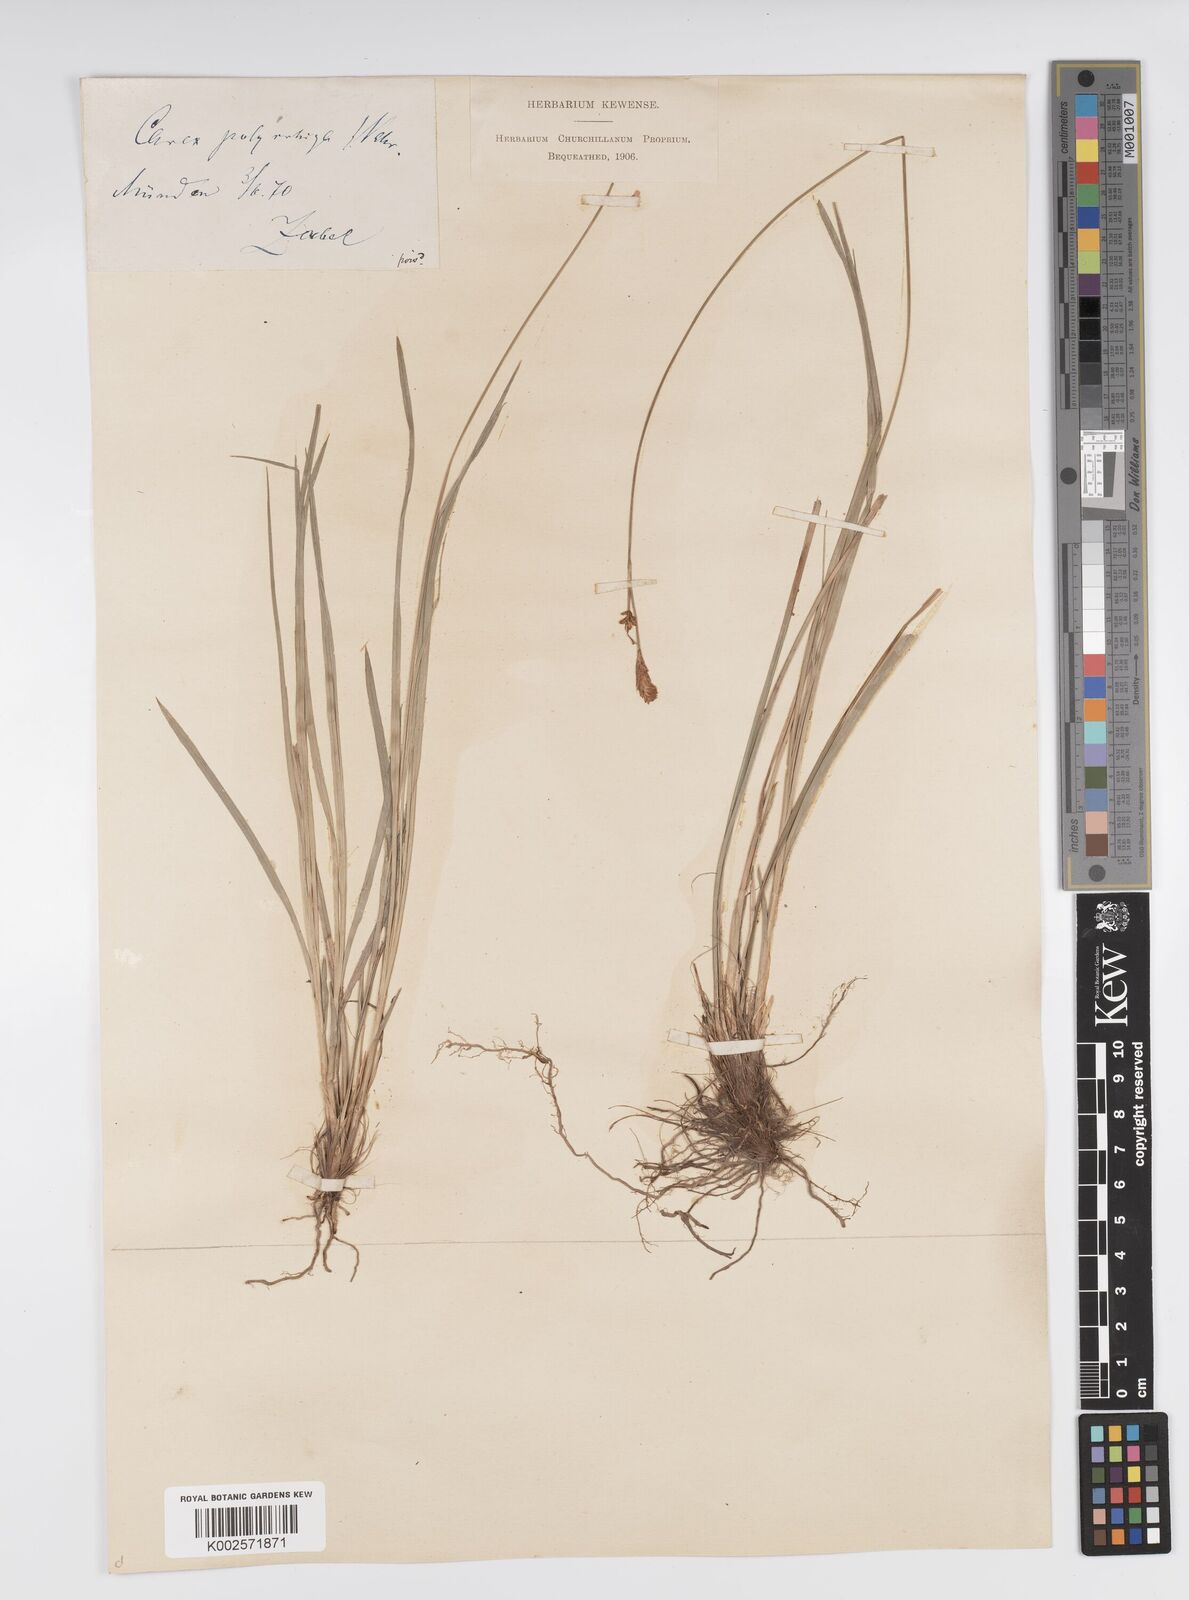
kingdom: Plantae
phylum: Tracheophyta
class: Liliopsida
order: Poales
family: Cyperaceae
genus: Carex
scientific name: Carex umbrosa
